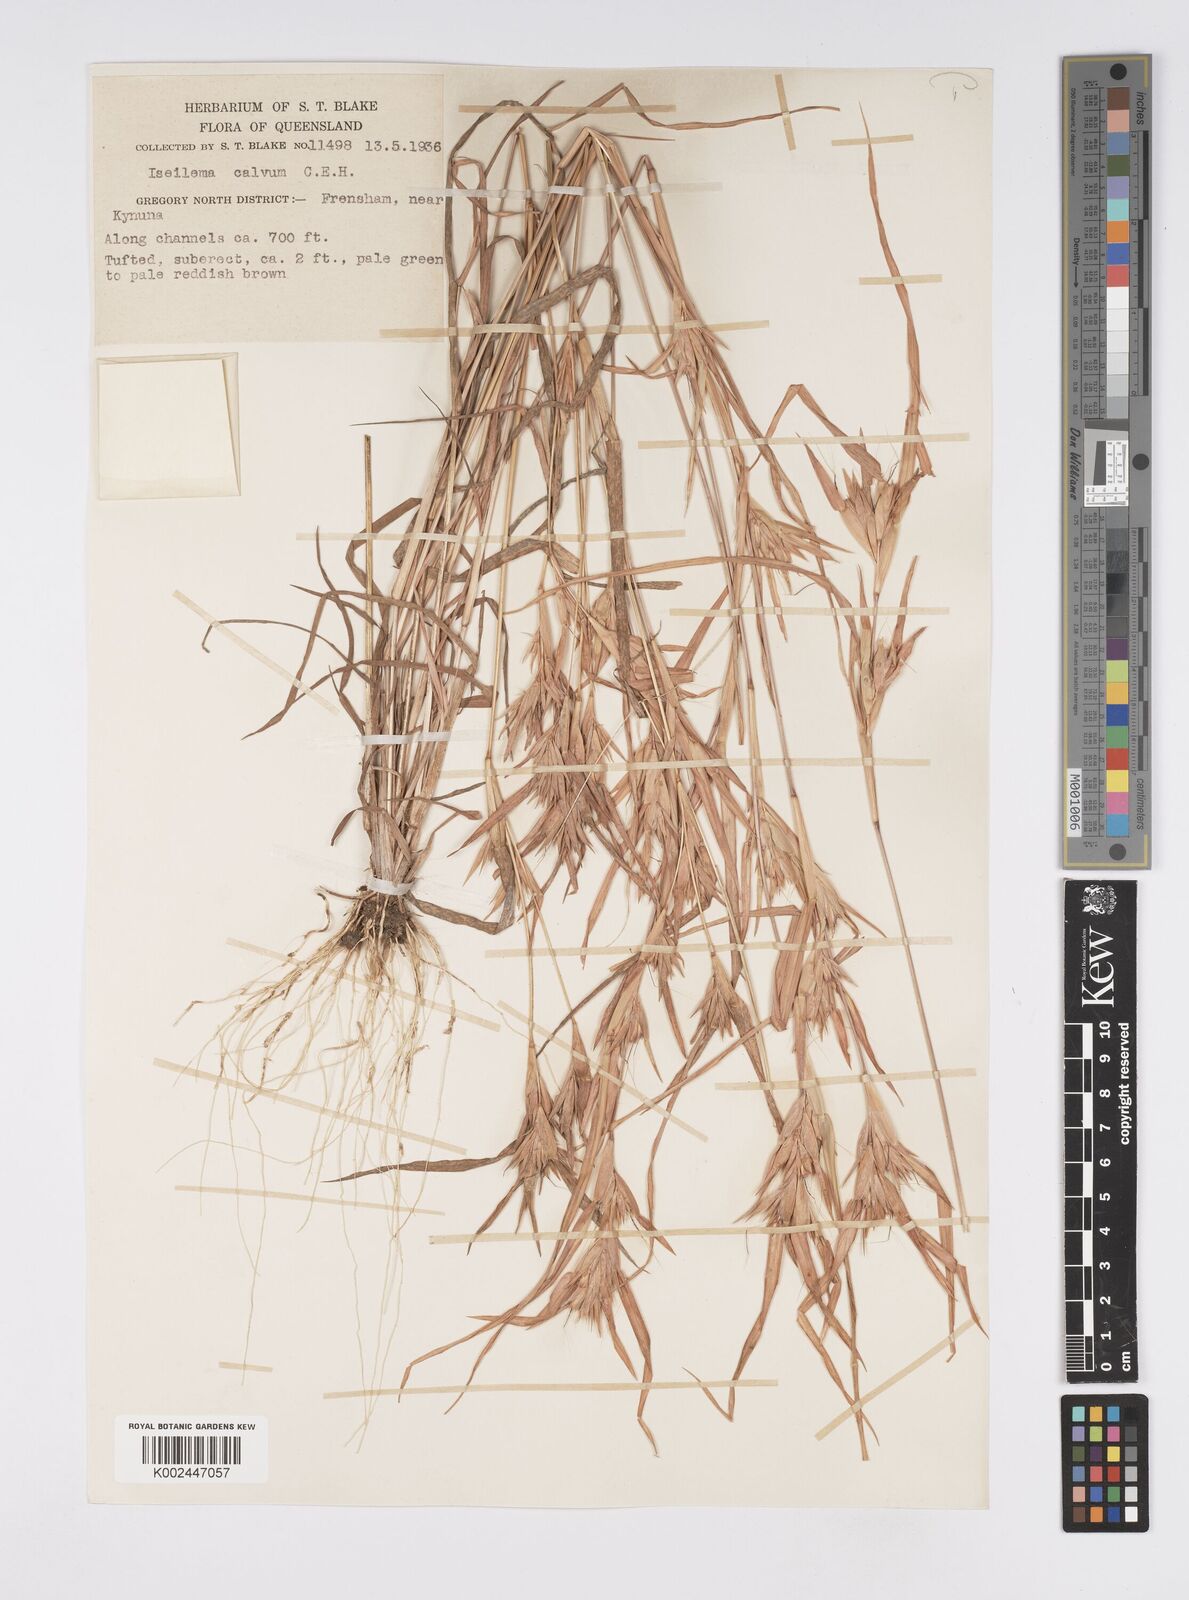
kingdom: Plantae
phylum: Tracheophyta
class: Liliopsida
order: Poales
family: Poaceae
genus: Iseilema
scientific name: Iseilema calvum
